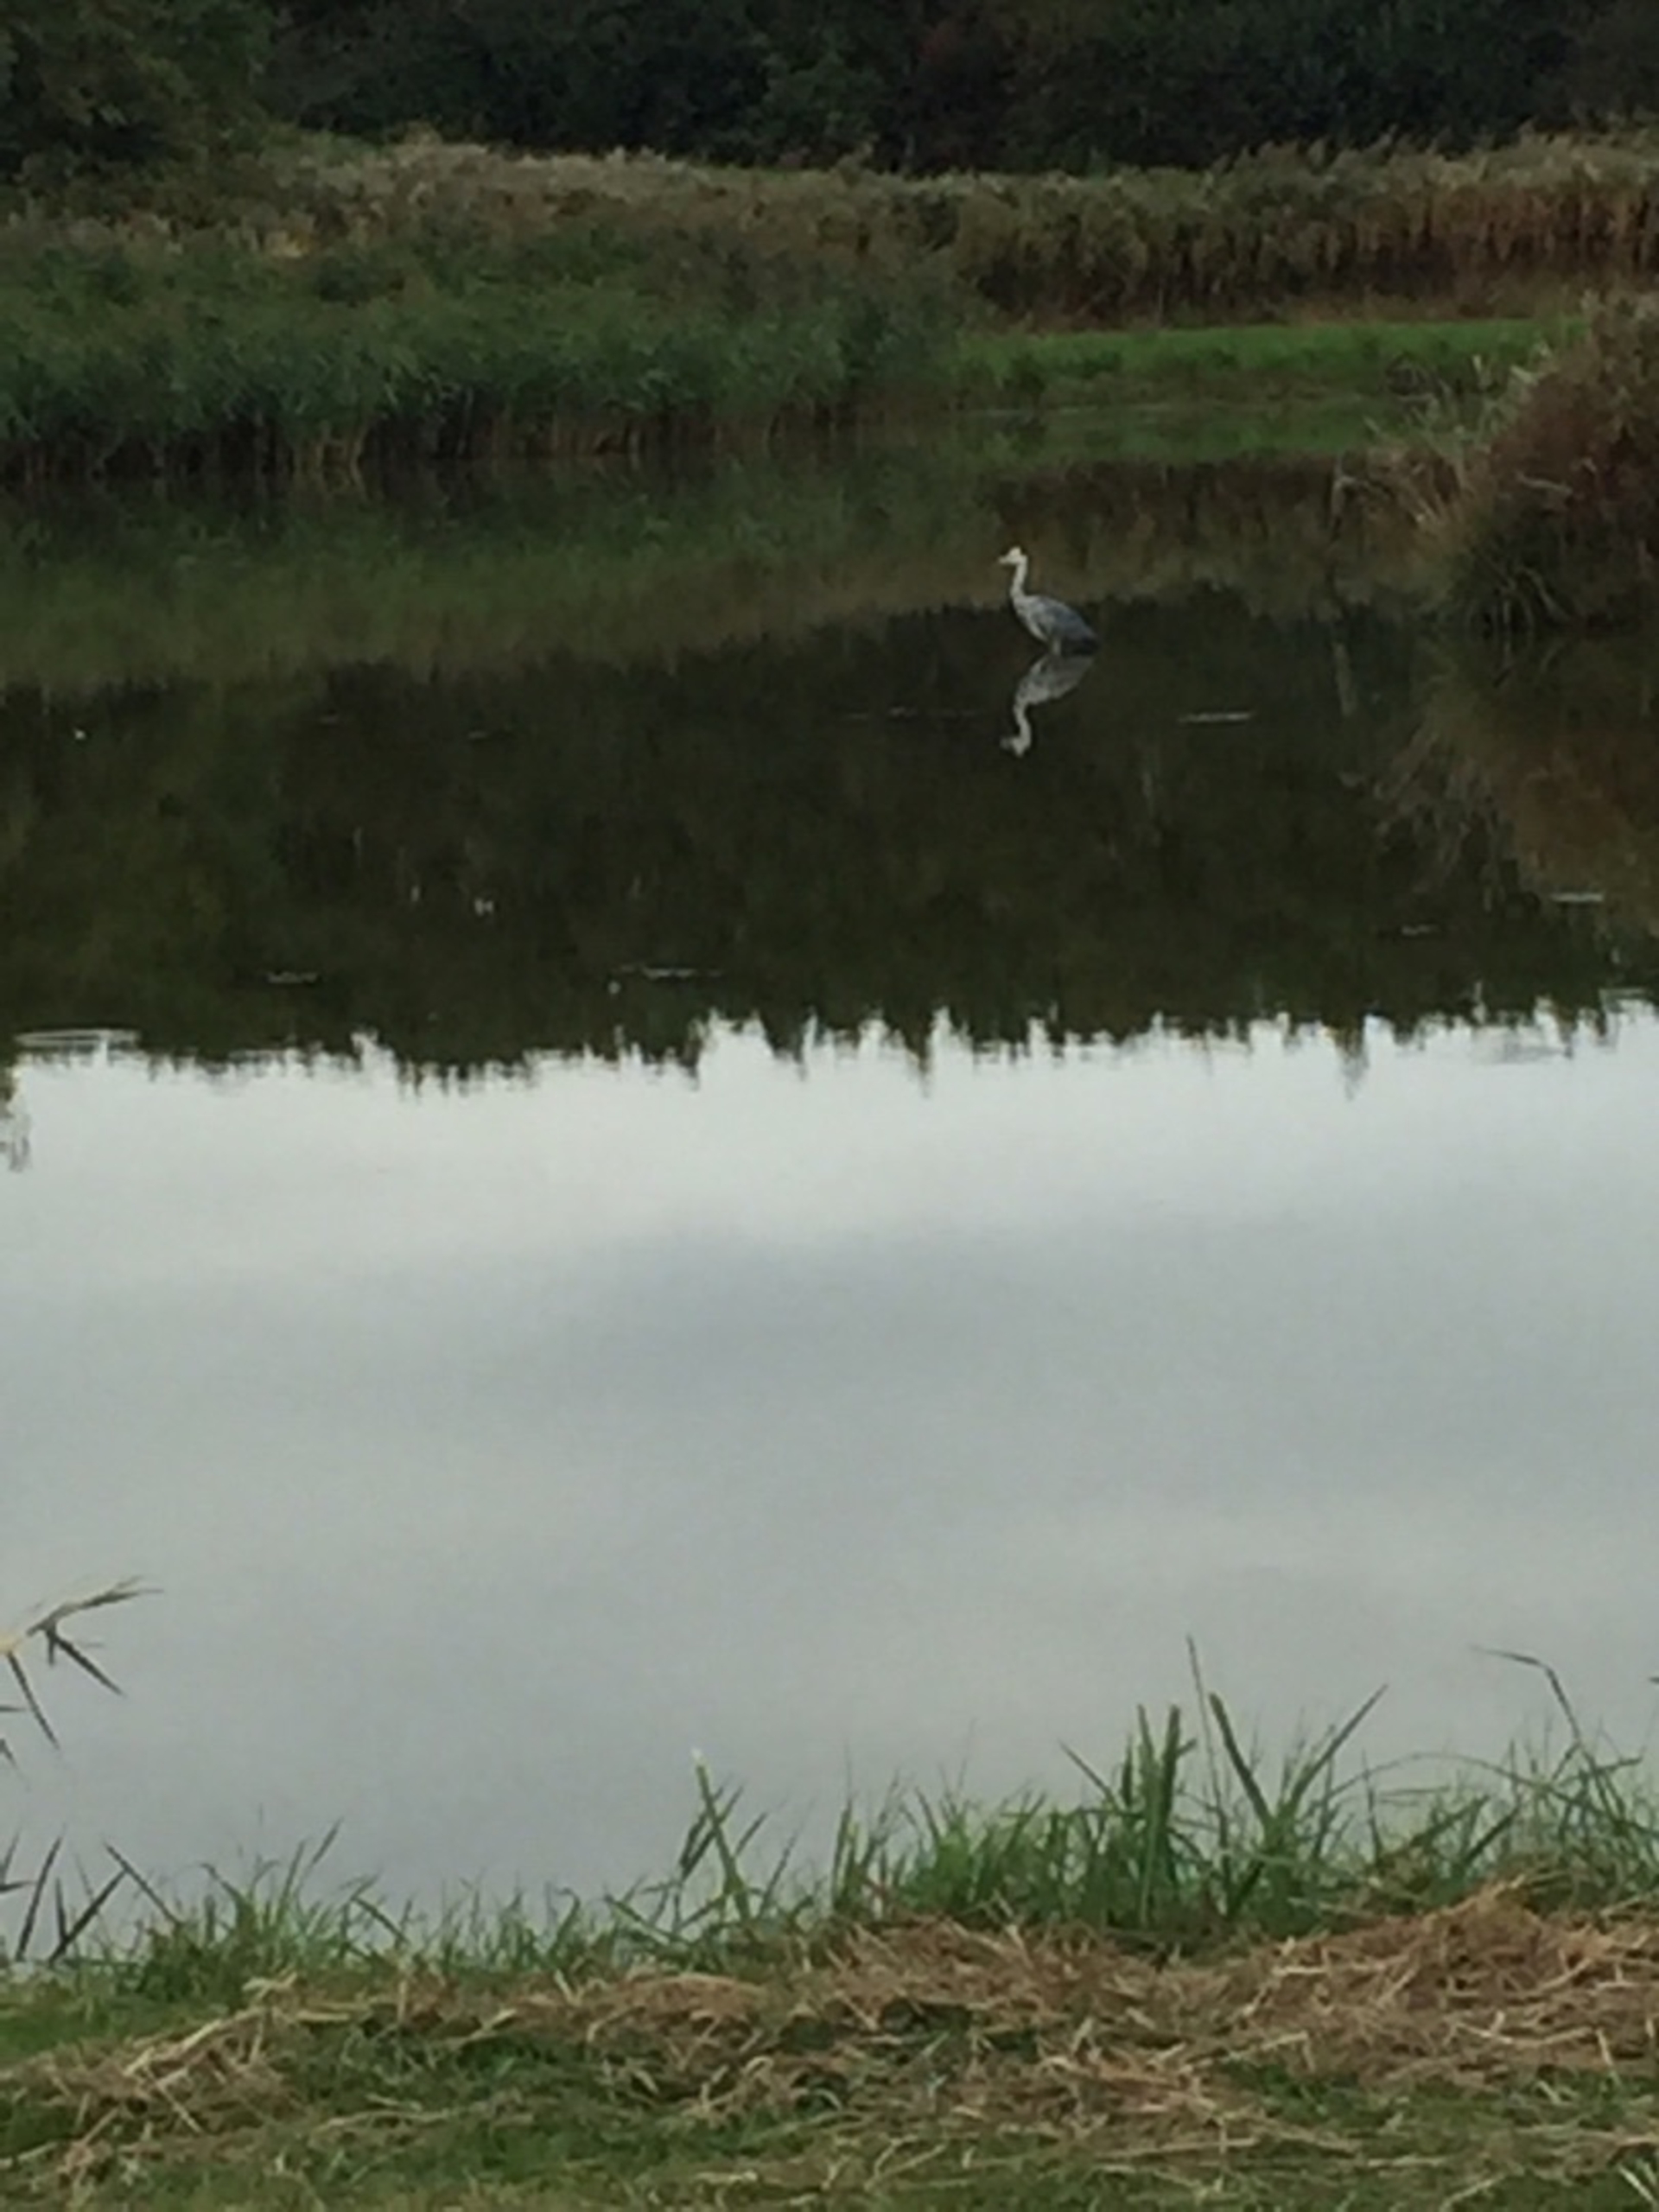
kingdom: Animalia
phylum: Chordata
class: Aves
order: Pelecaniformes
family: Ardeidae
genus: Ardea
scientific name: Ardea cinerea
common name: Fiskehejre
